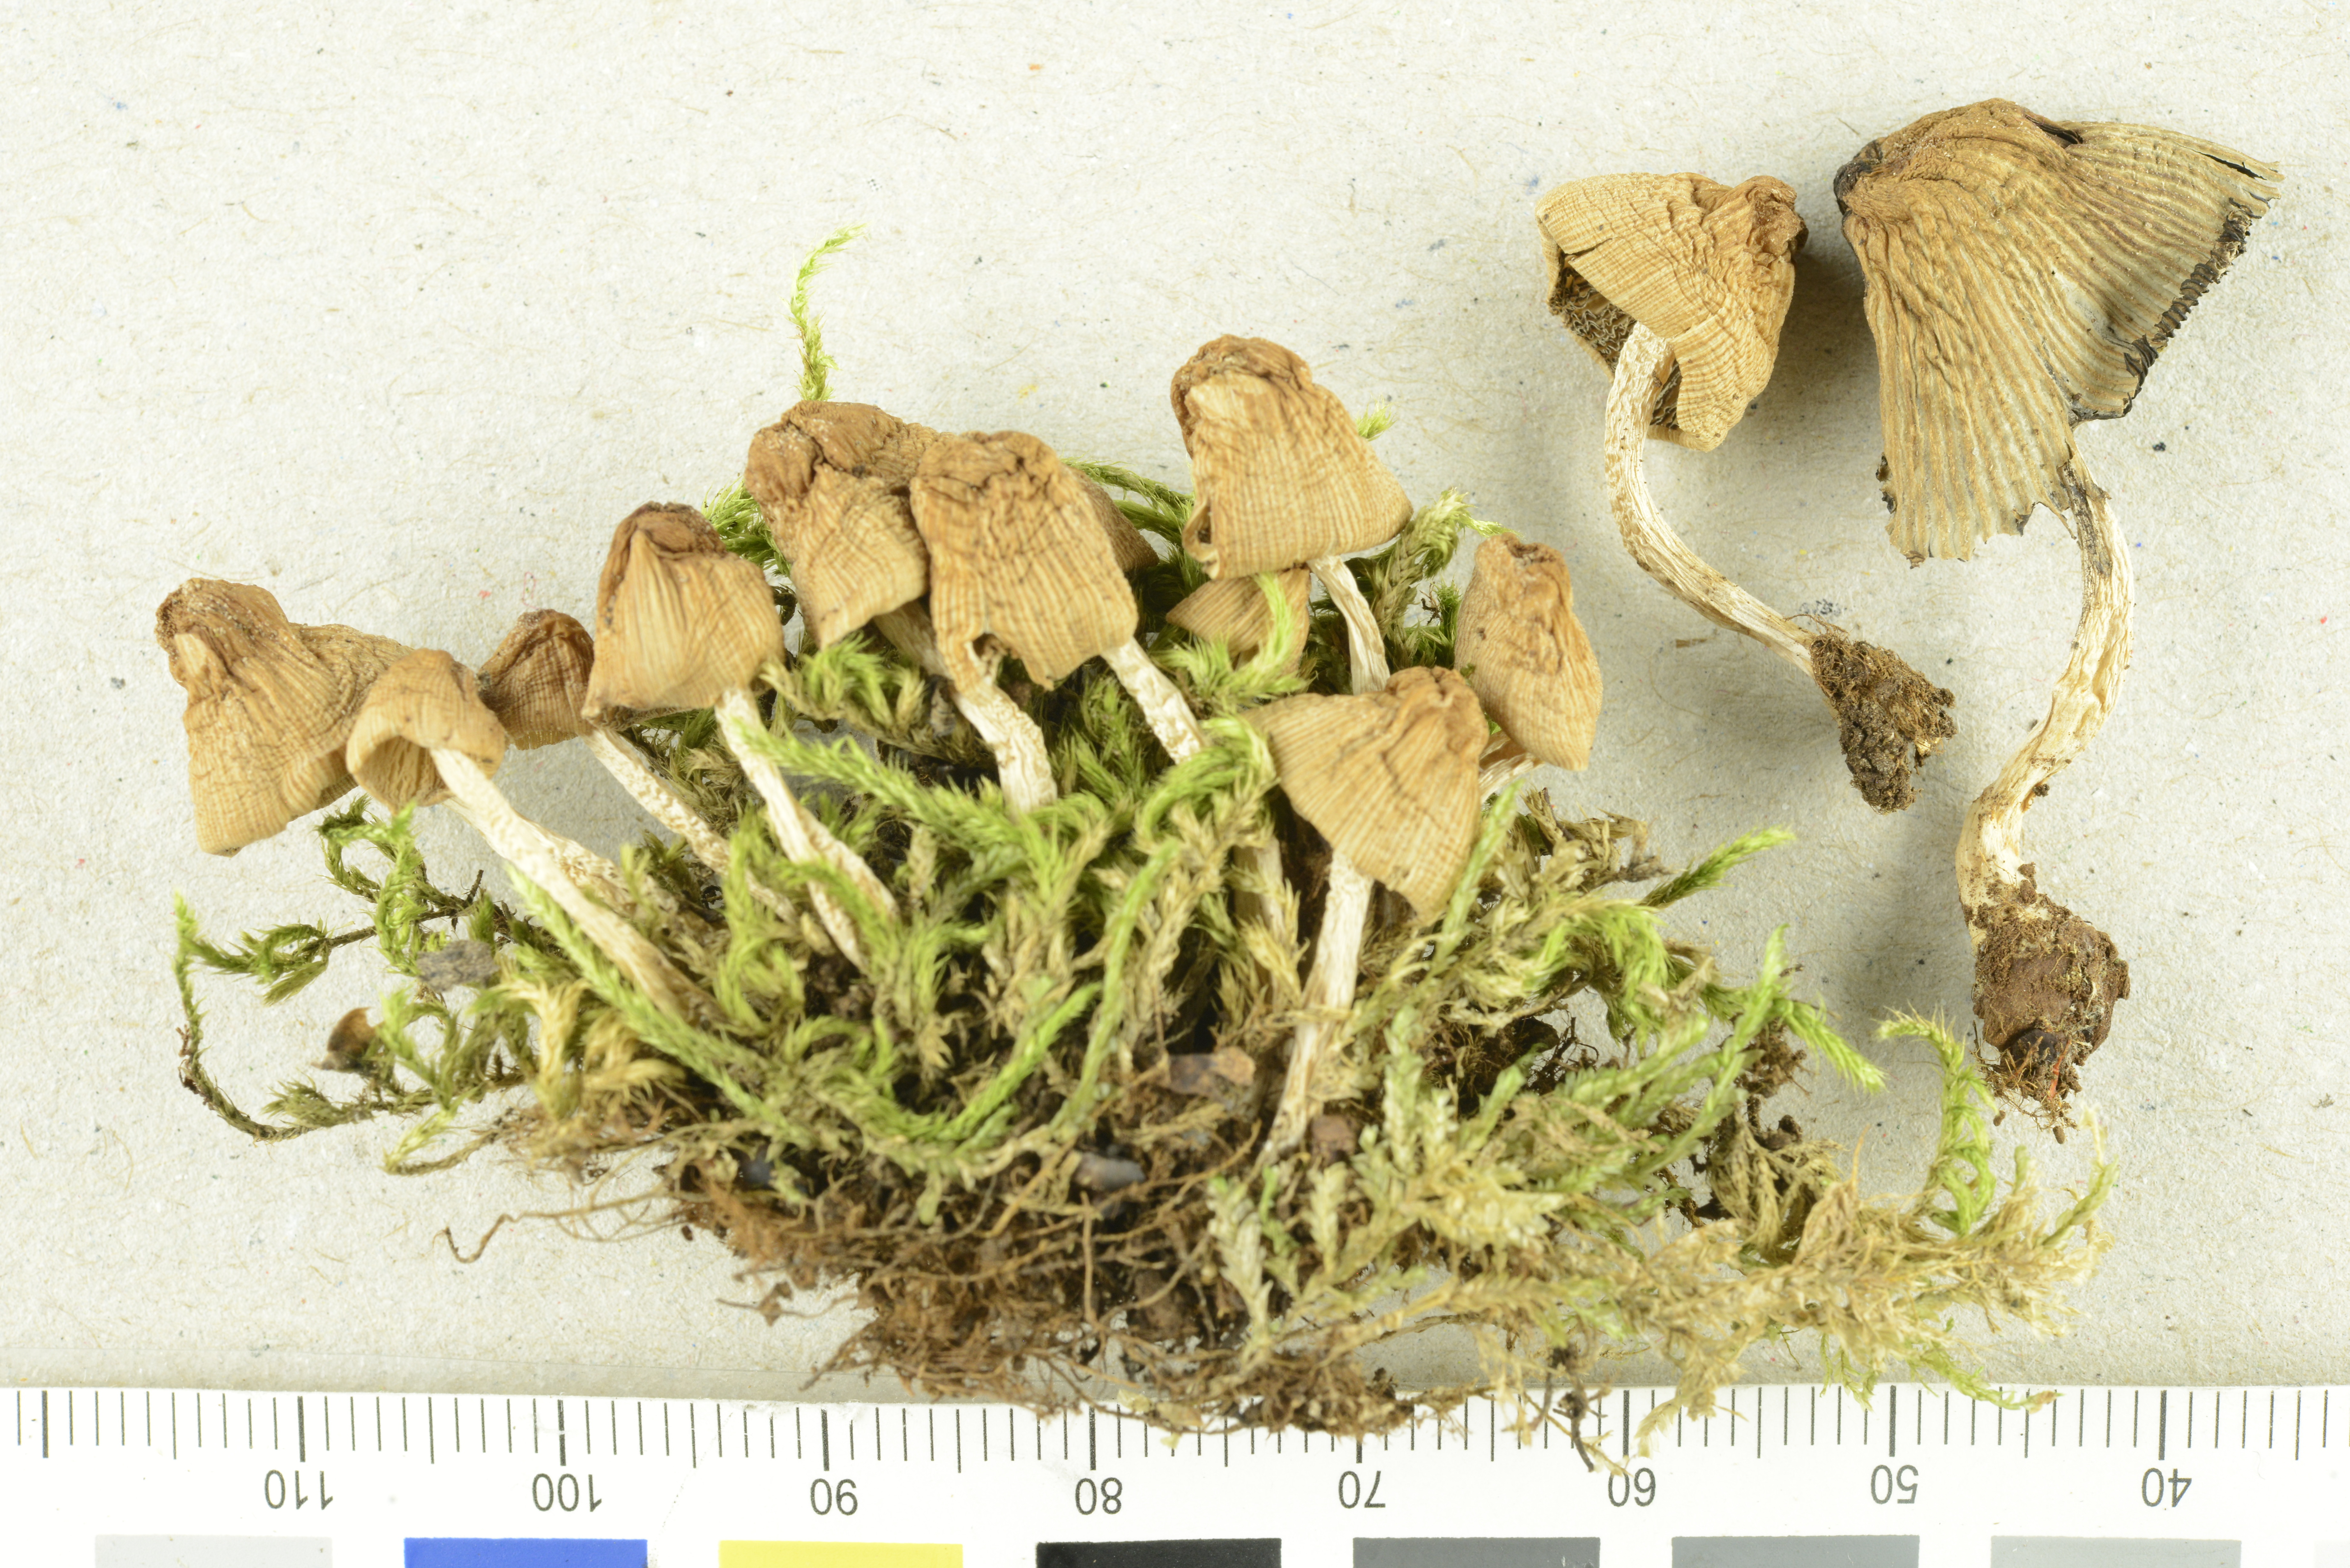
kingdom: Fungi
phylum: Basidiomycota
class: Agaricomycetes
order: Agaricales
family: Psathyrellaceae
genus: Coprinellus
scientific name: Coprinellus micaceus
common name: Glistening ink-cap
